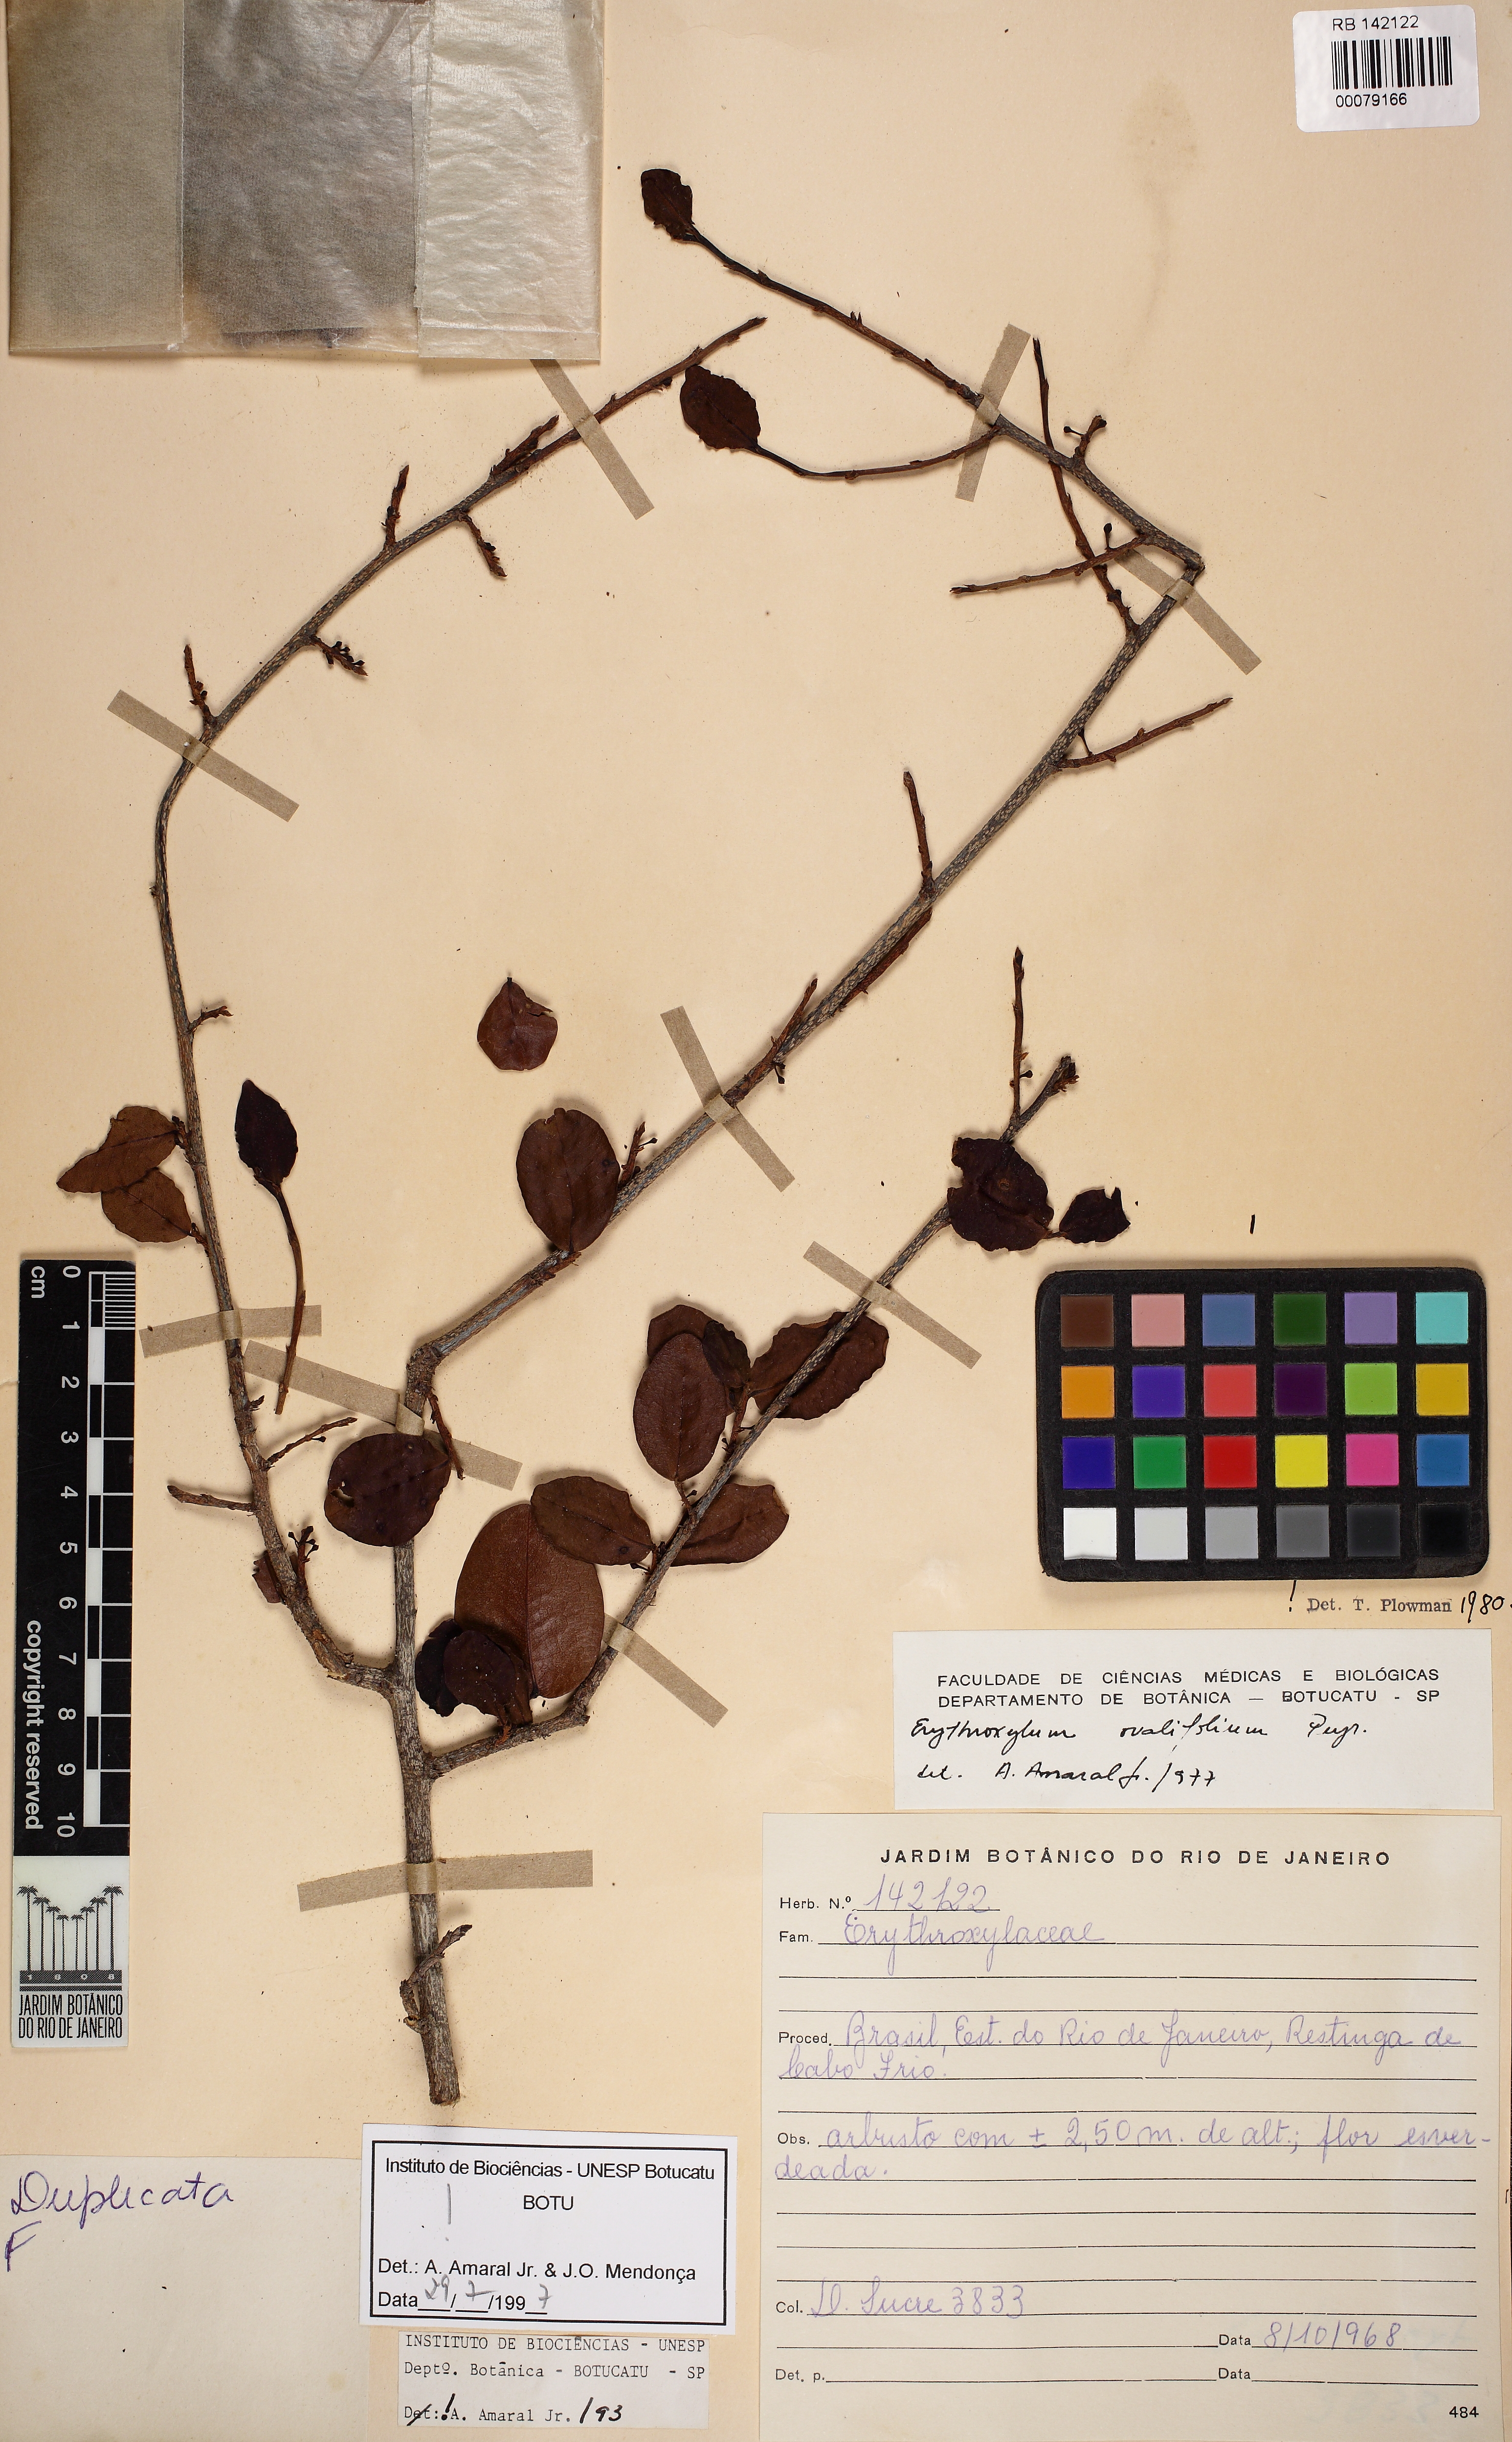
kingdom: Plantae
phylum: Tracheophyta
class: Magnoliopsida
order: Malpighiales
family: Erythroxylaceae
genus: Erythroxylum
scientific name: Erythroxylum ovalifolium
